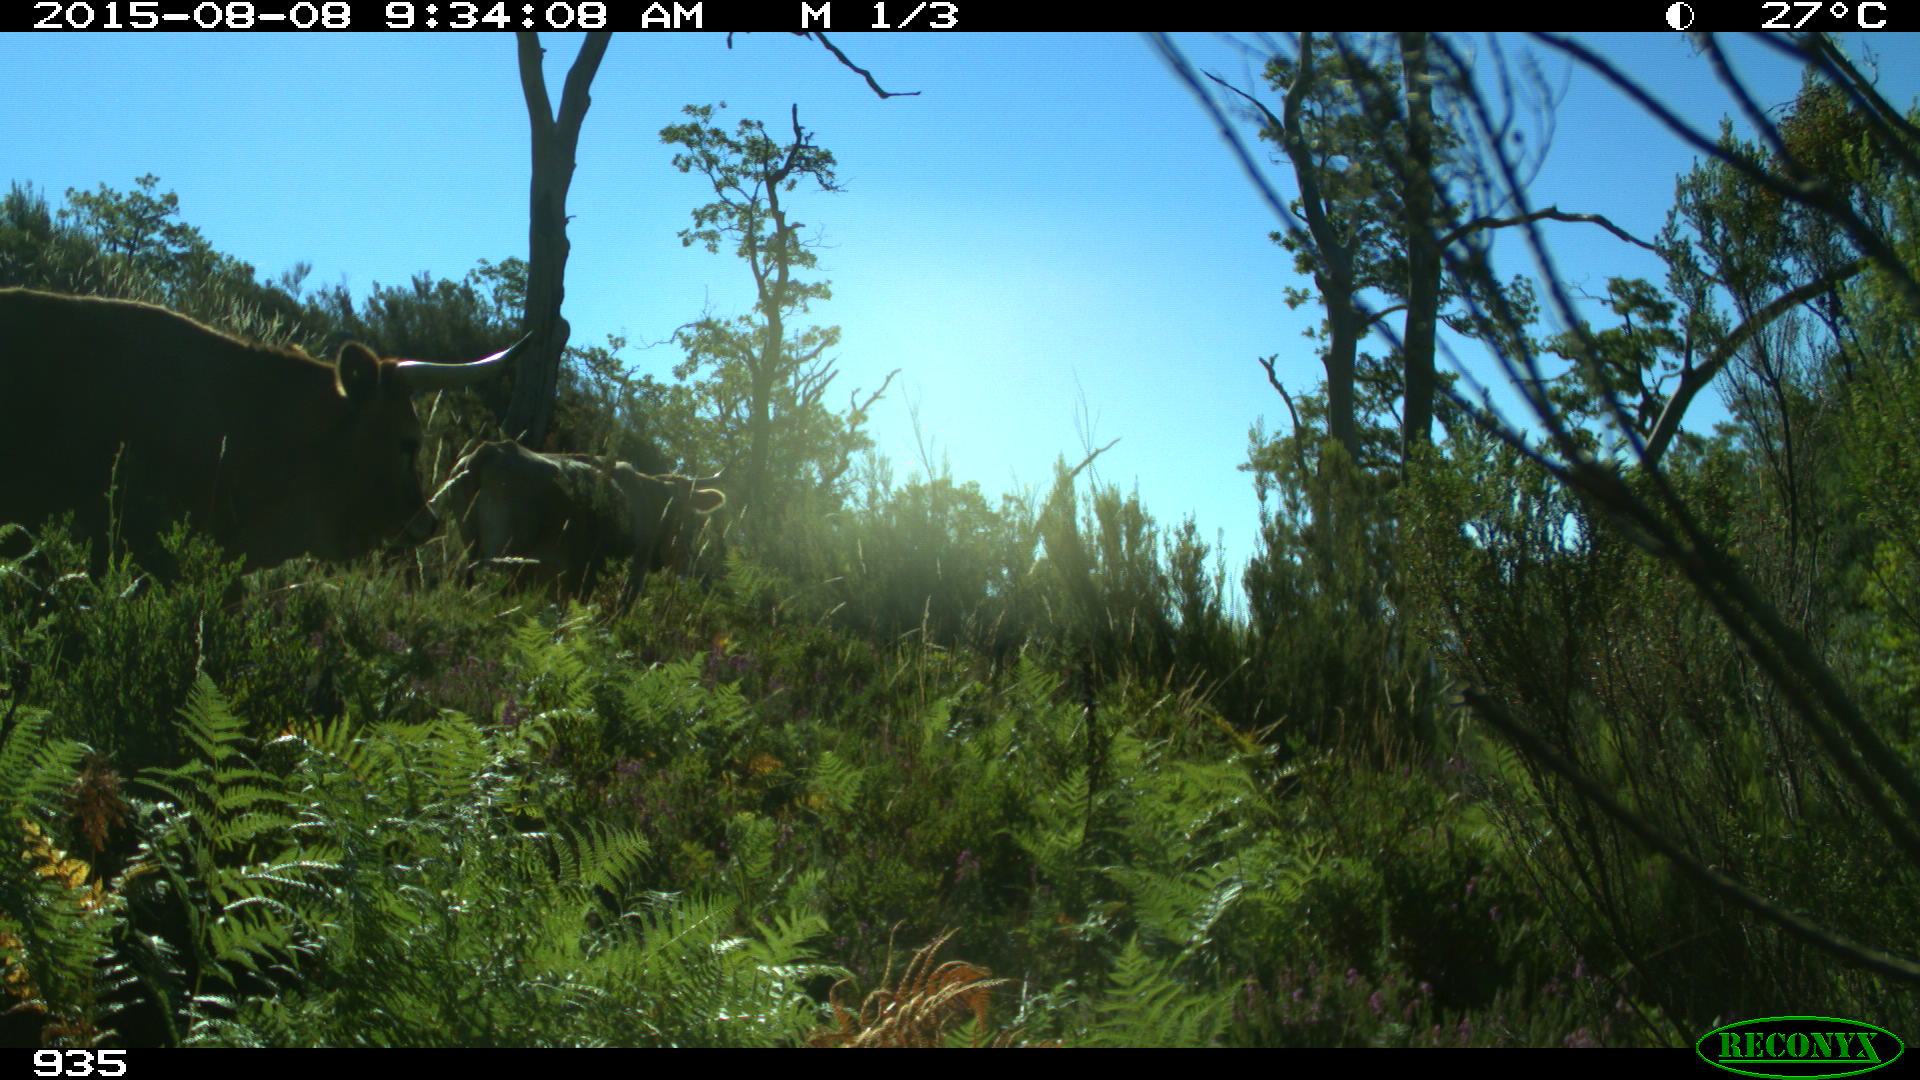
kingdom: Animalia
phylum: Chordata
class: Mammalia
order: Artiodactyla
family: Bovidae
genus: Bos
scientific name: Bos taurus
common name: Domesticated cattle
